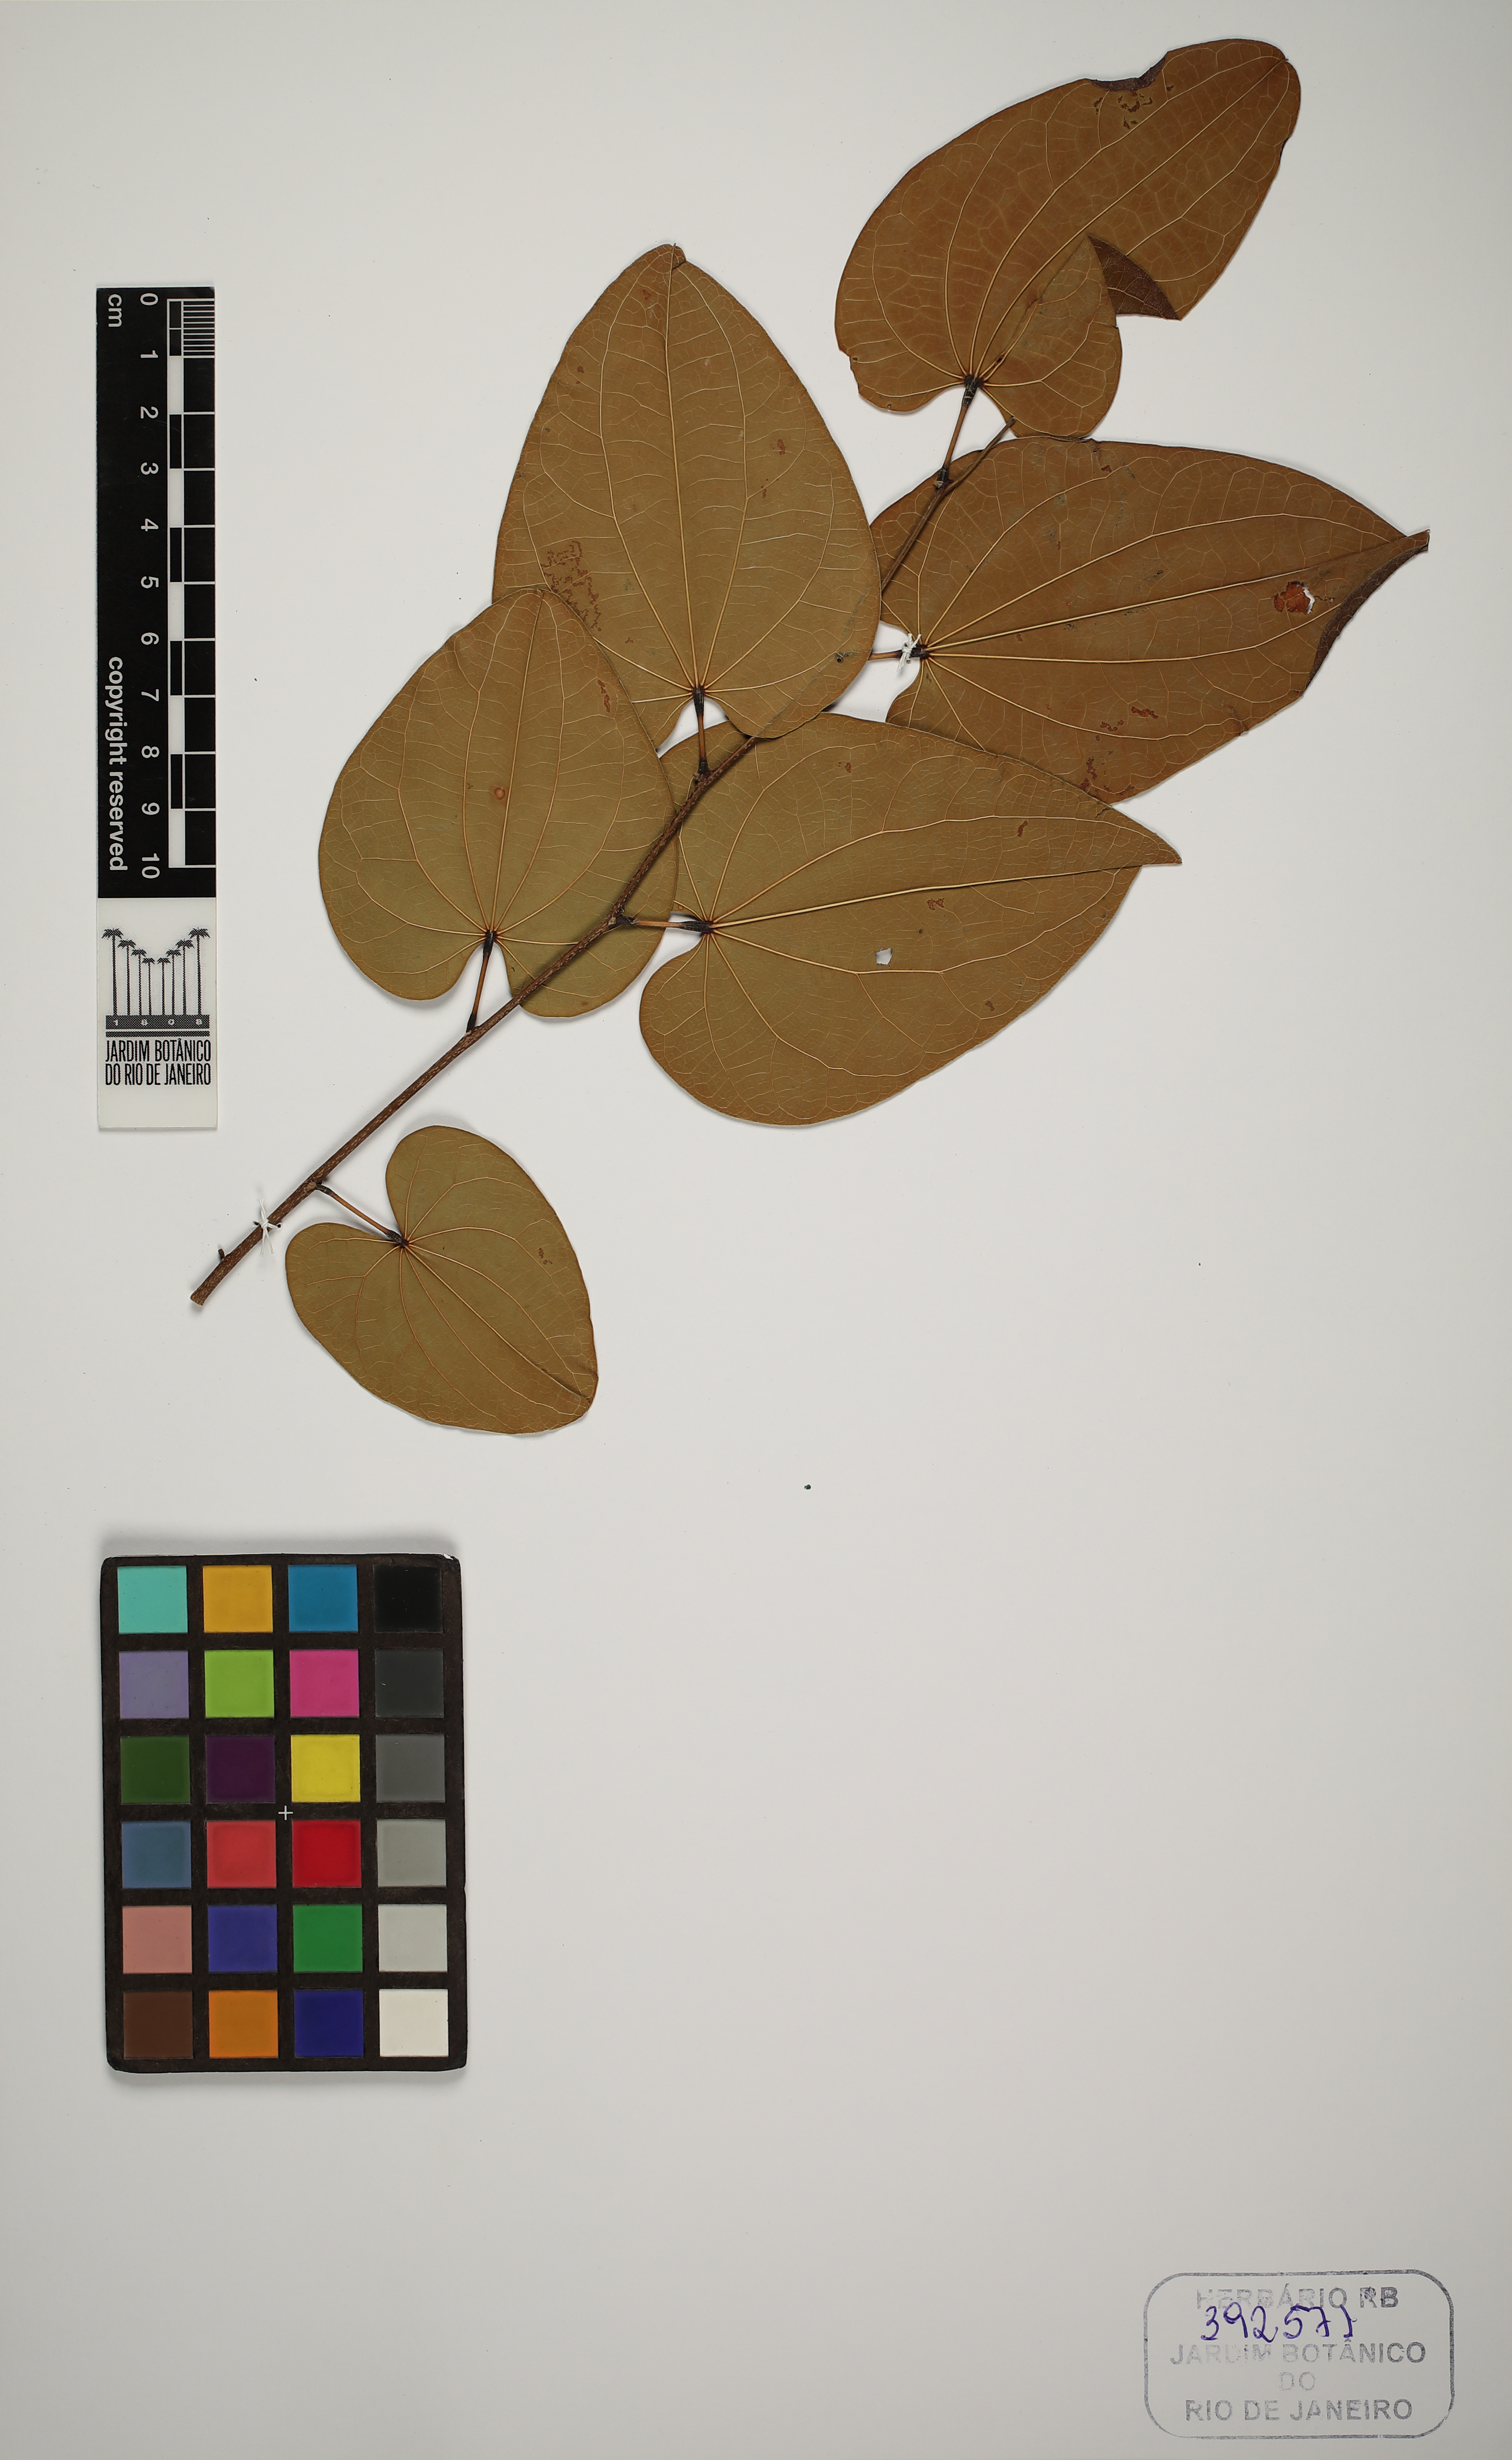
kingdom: Plantae
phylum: Tracheophyta
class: Magnoliopsida
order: Fabales
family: Fabaceae
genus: Bauhinia
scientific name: Bauhinia
